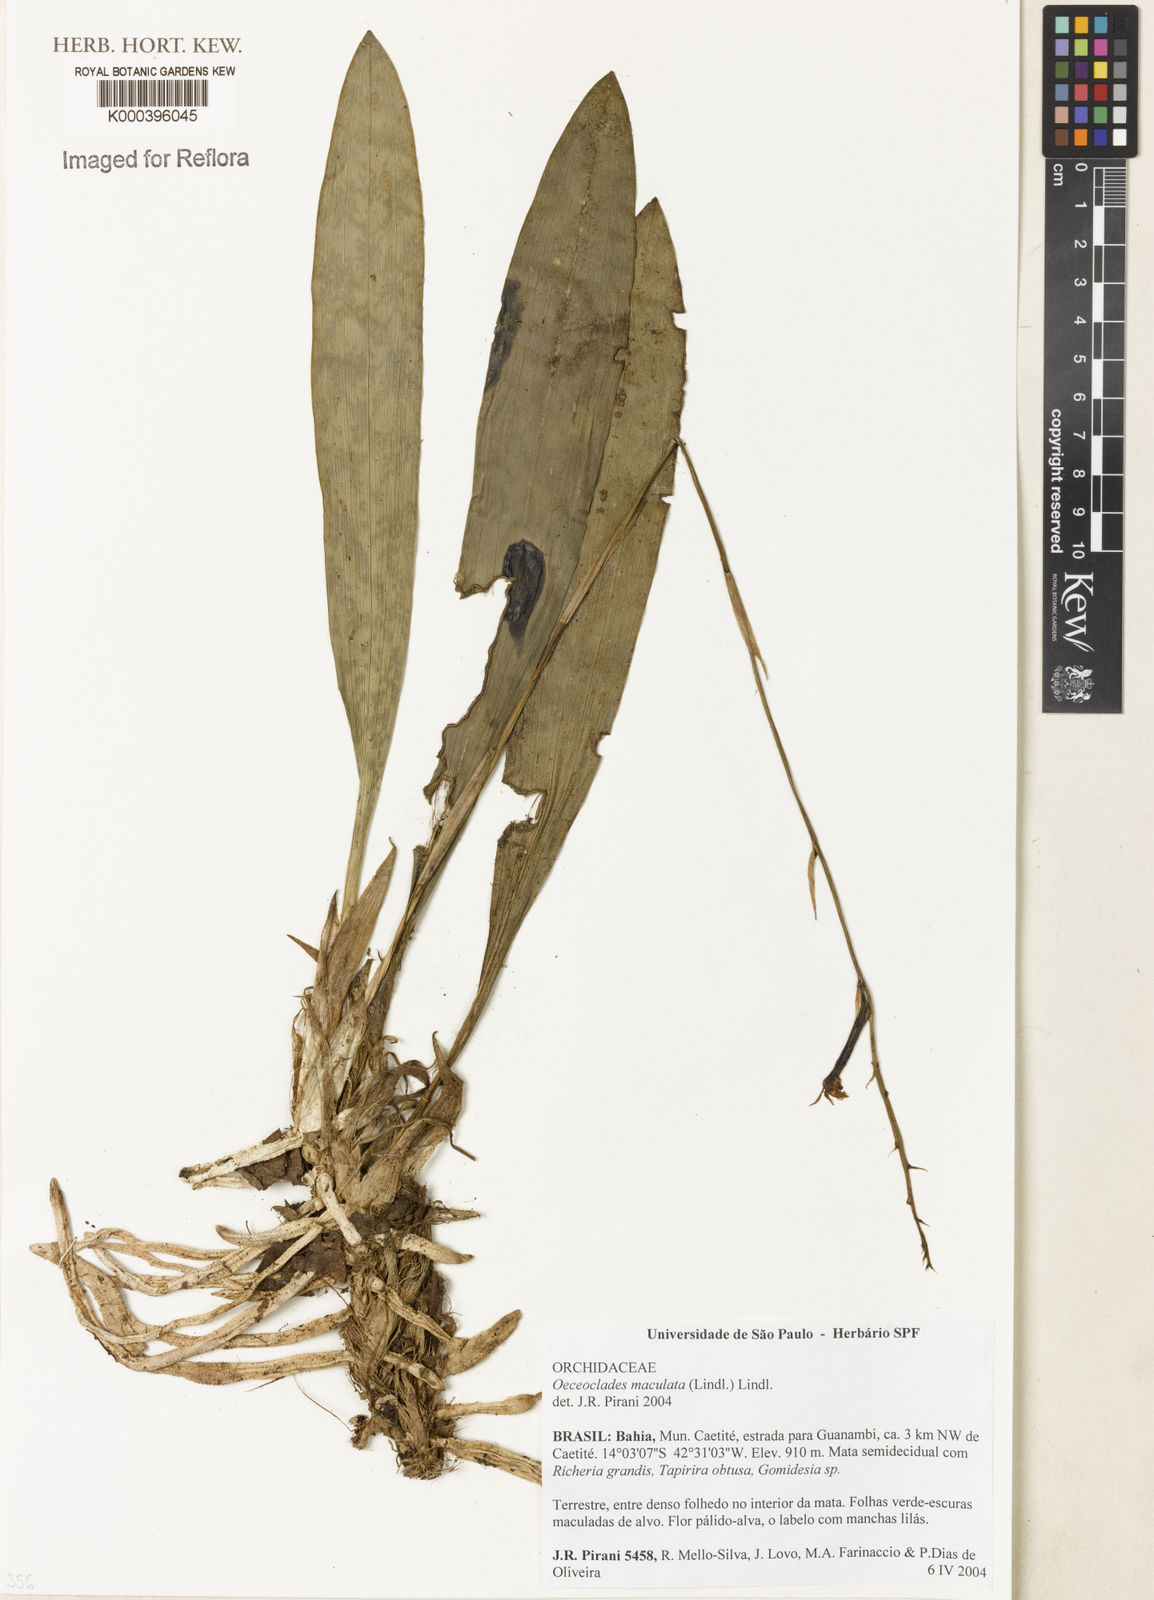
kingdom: Plantae
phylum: Tracheophyta
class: Liliopsida
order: Asparagales
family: Orchidaceae
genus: Eulophia
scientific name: Eulophia maculata
